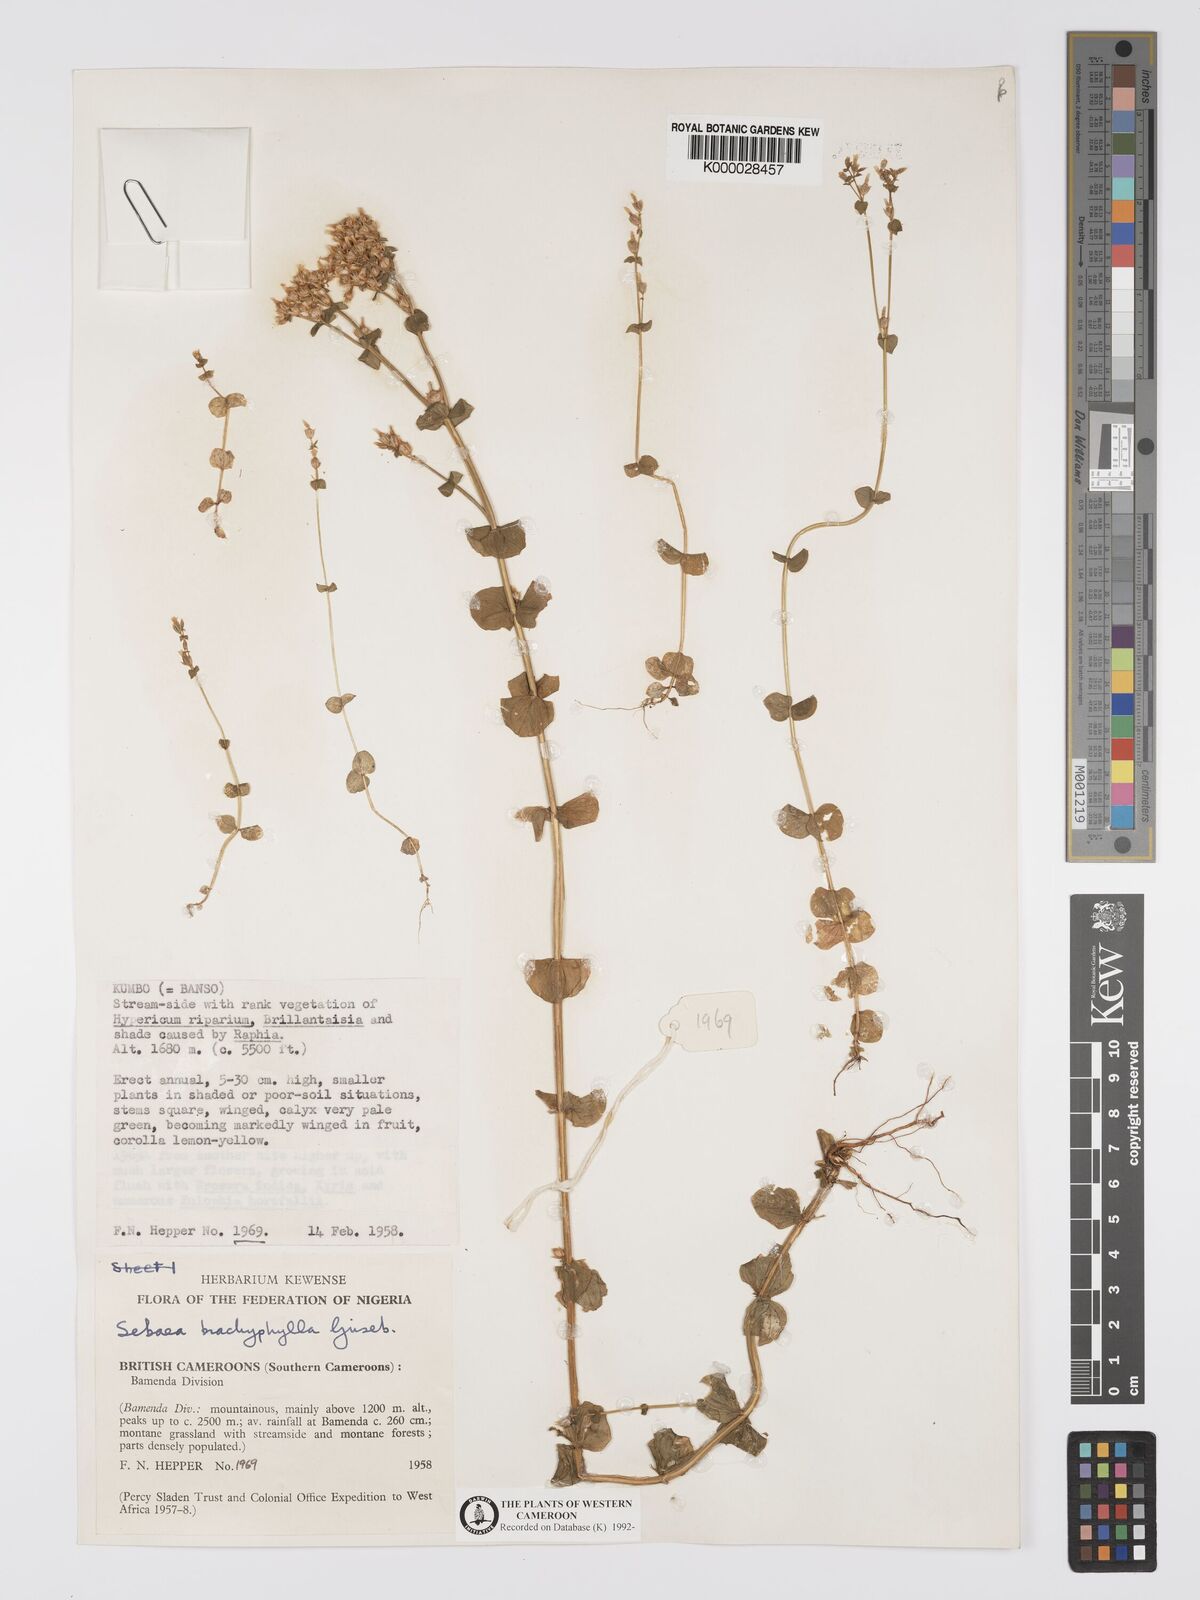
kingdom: Plantae
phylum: Tracheophyta
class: Magnoliopsida
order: Gentianales
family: Gentianaceae
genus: Sebaea
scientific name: Sebaea brachyphylla
